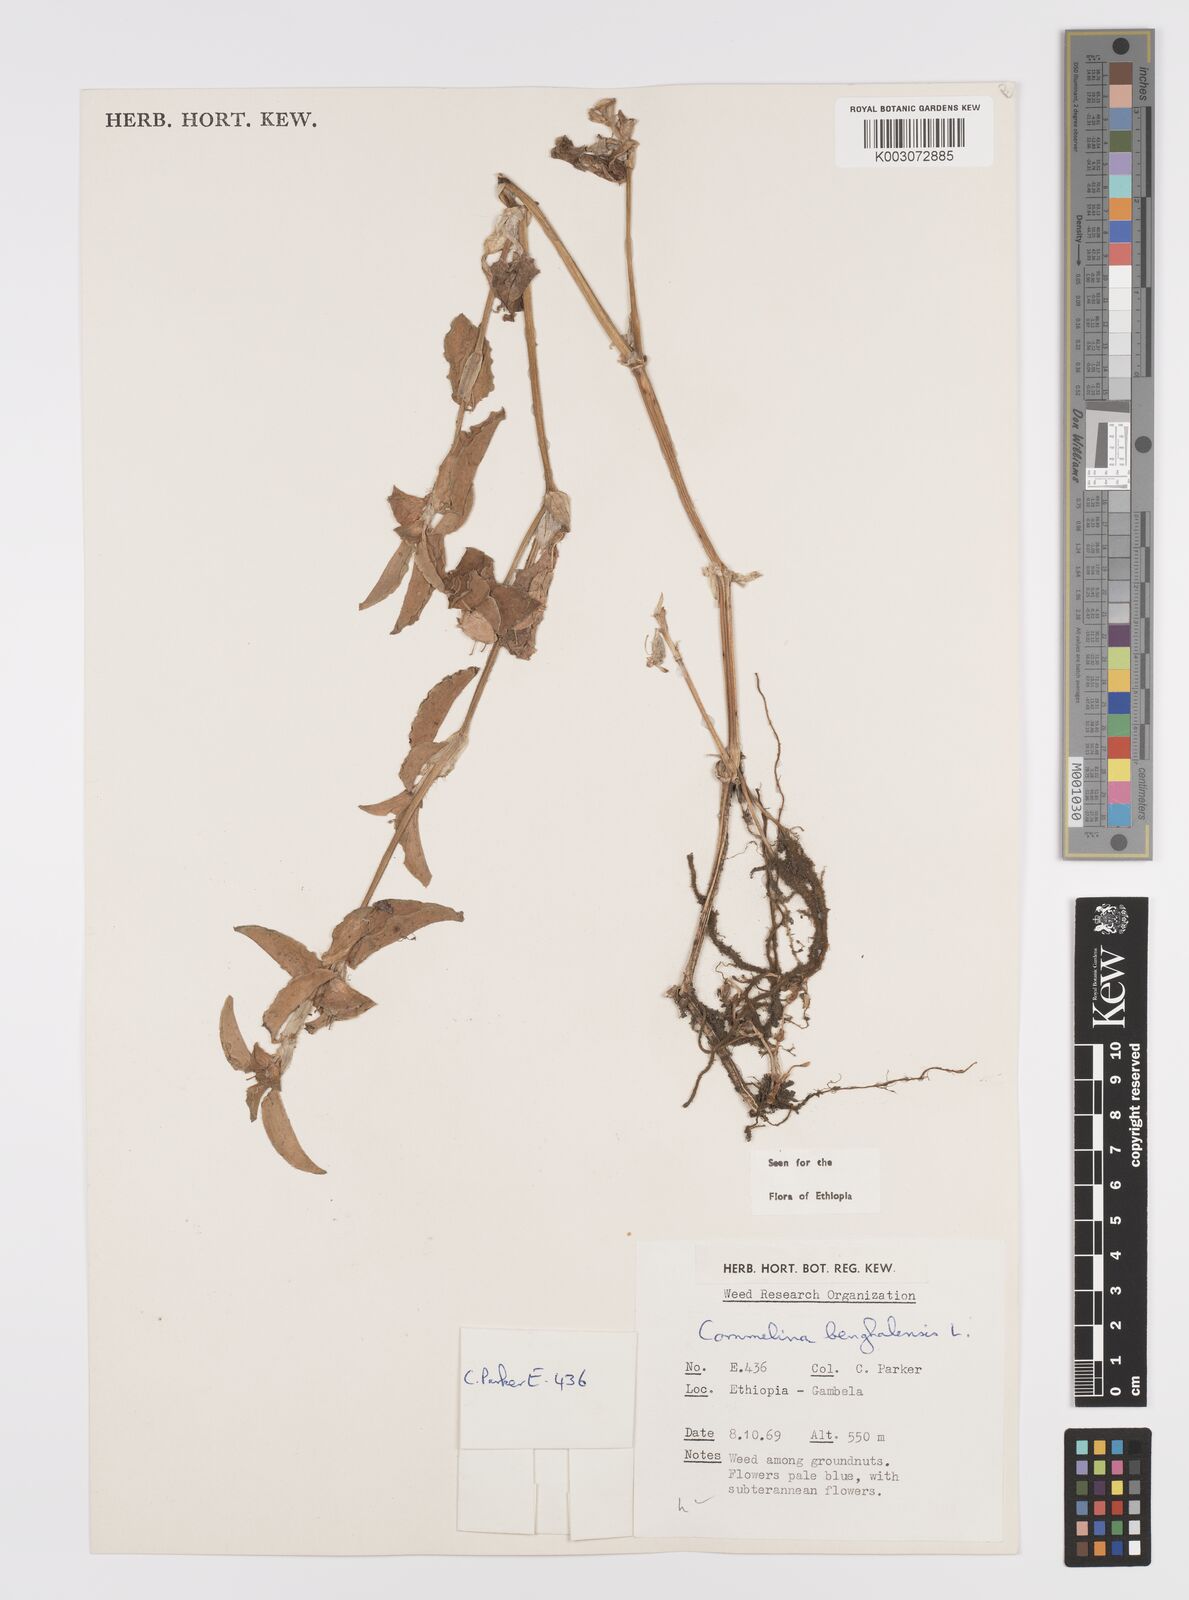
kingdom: Plantae
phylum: Tracheophyta
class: Liliopsida
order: Commelinales
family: Commelinaceae
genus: Commelina
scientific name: Commelina benghalensis
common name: Jio
